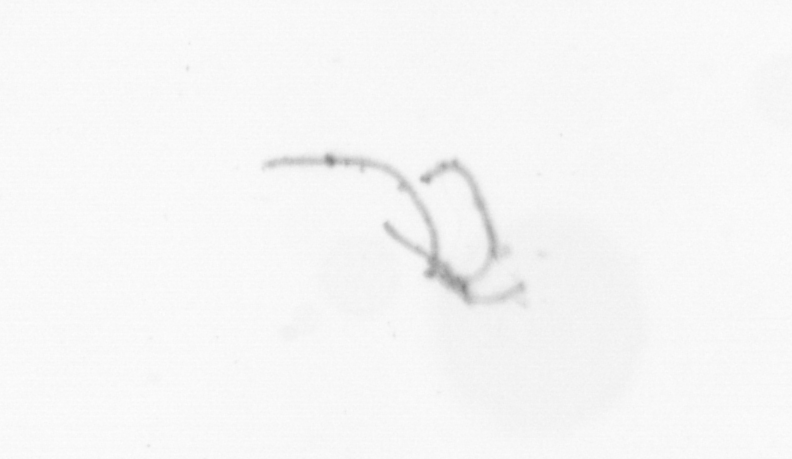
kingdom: Chromista
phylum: Ochrophyta
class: Bacillariophyceae
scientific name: Bacillariophyceae
